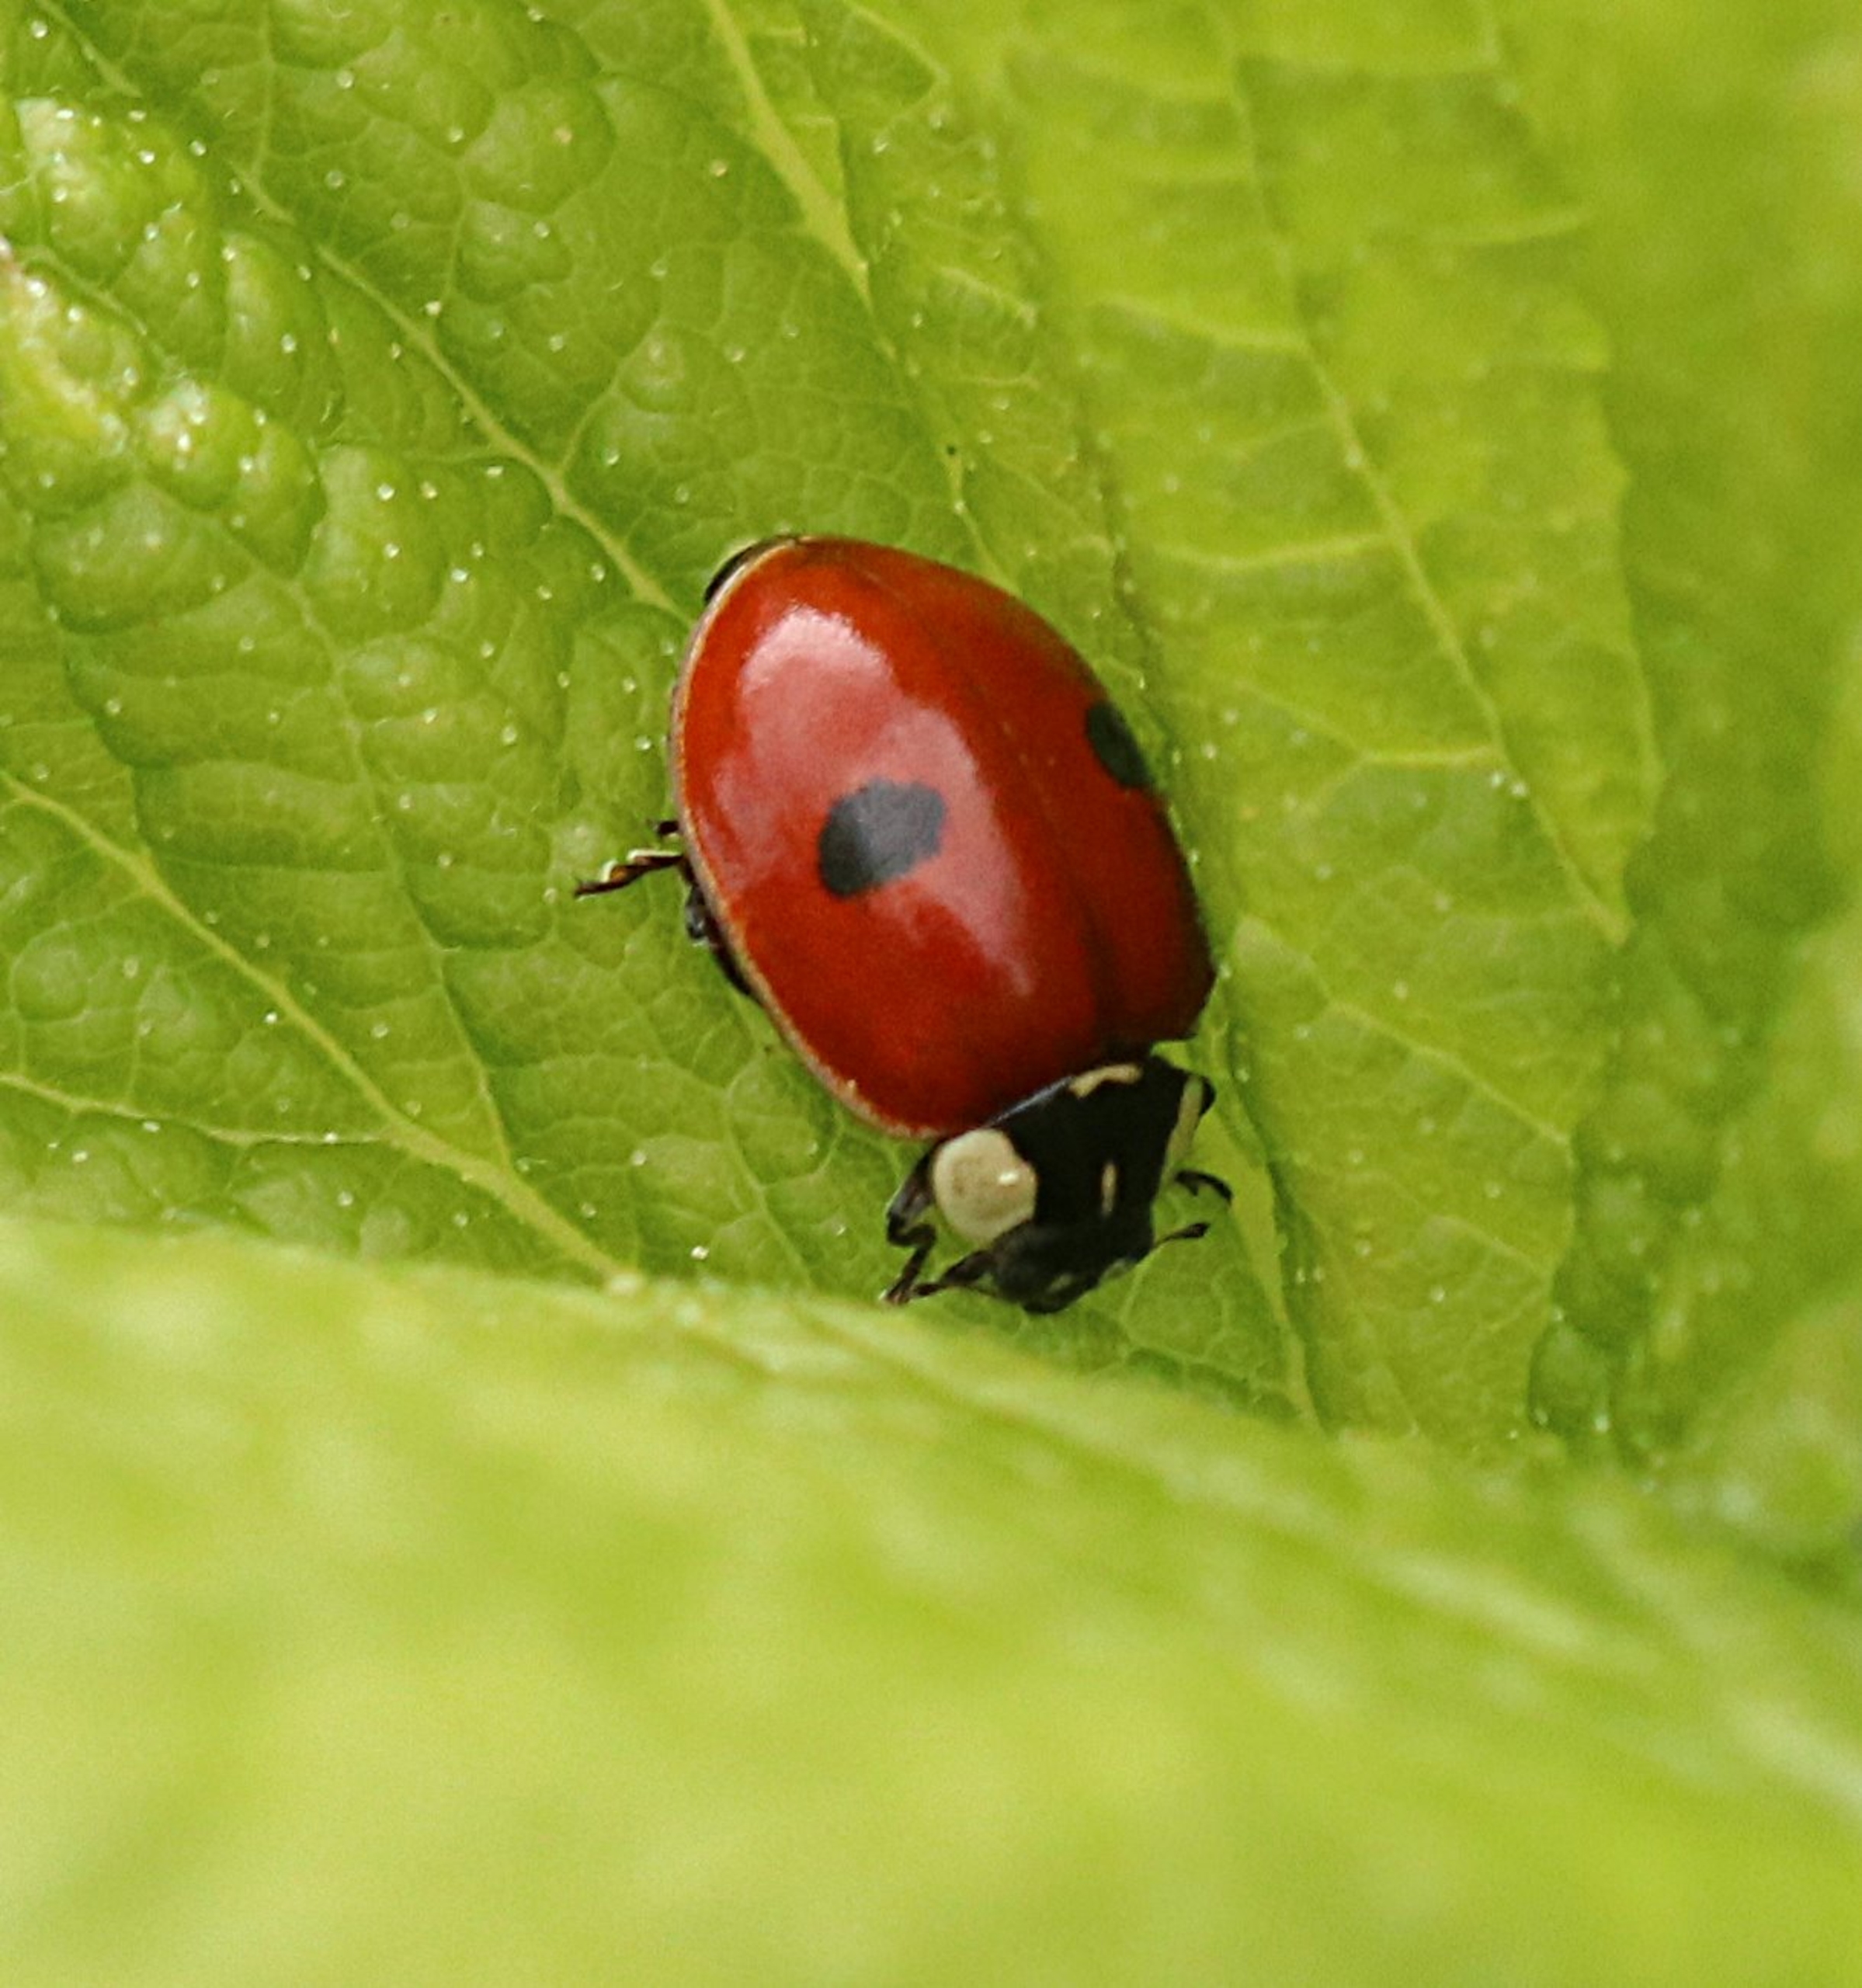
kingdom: Animalia
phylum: Arthropoda
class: Insecta
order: Coleoptera
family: Coccinellidae
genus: Adalia
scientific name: Adalia bipunctata
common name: Toplettet mariehøne
